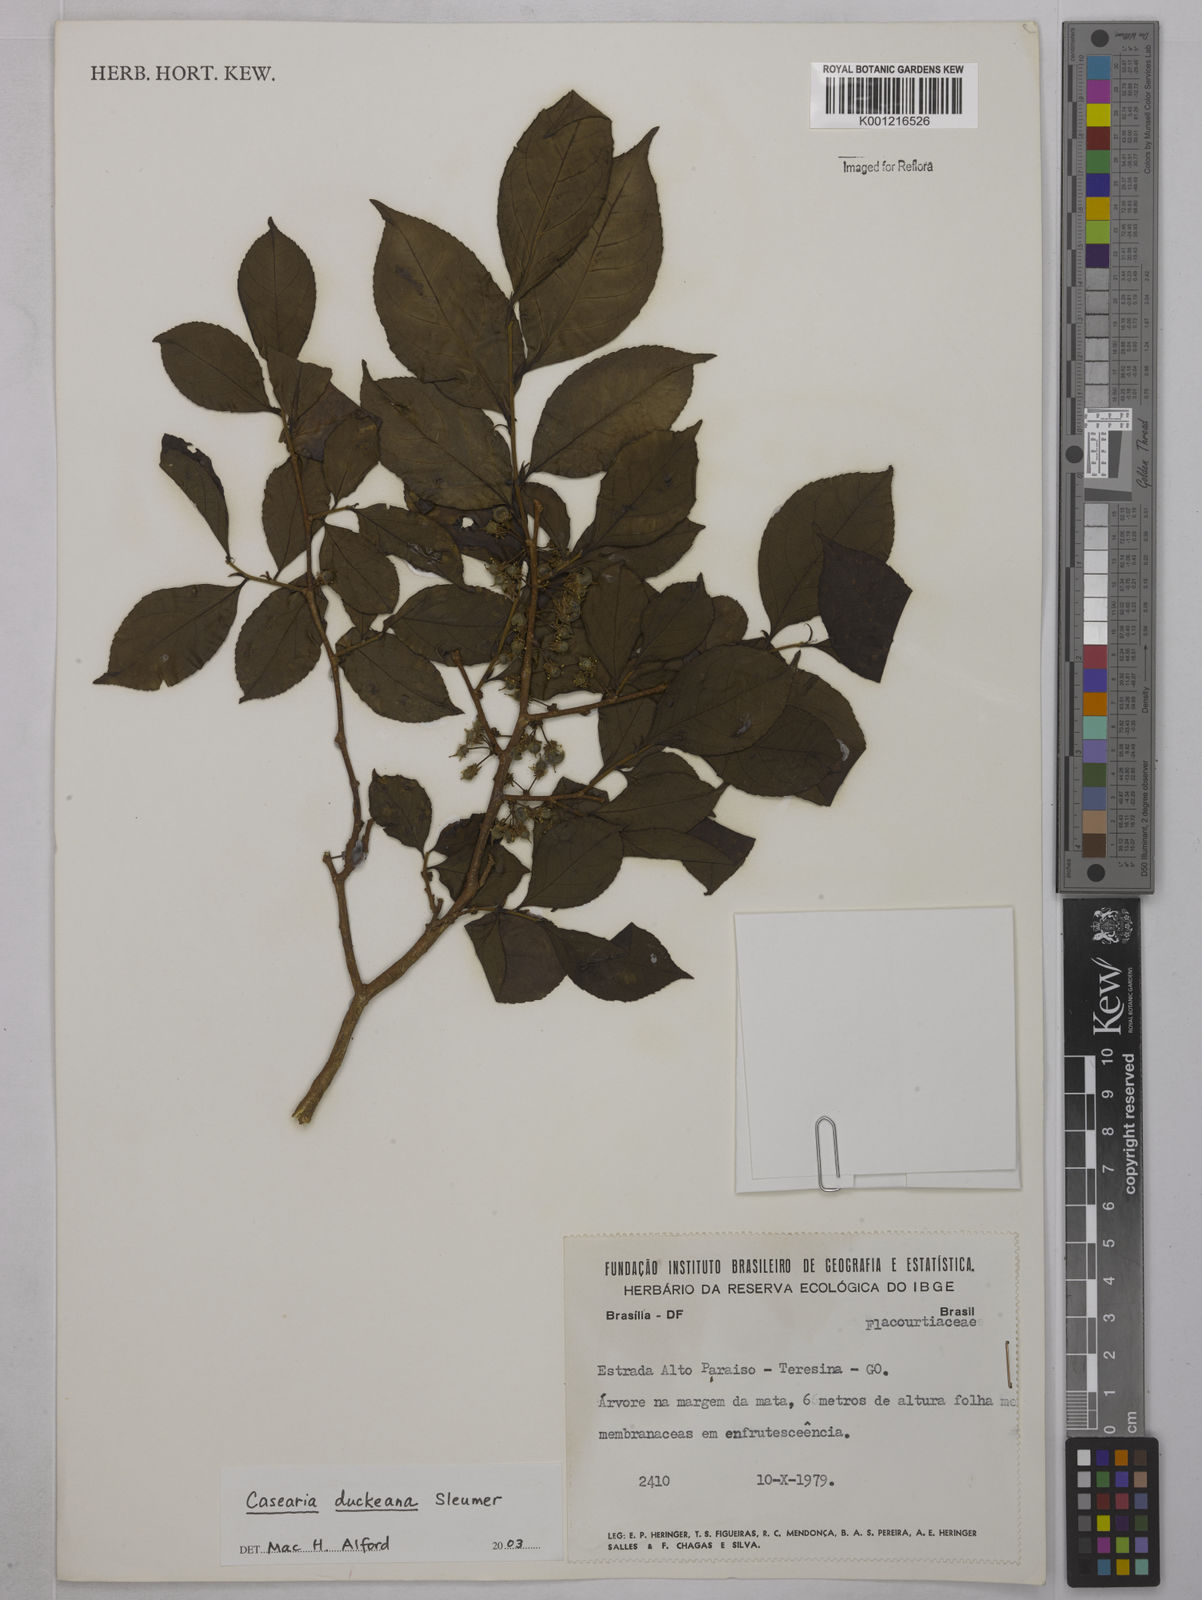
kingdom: Plantae
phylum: Tracheophyta
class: Magnoliopsida
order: Malpighiales
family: Salicaceae
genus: Casearia
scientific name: Casearia duckeana
